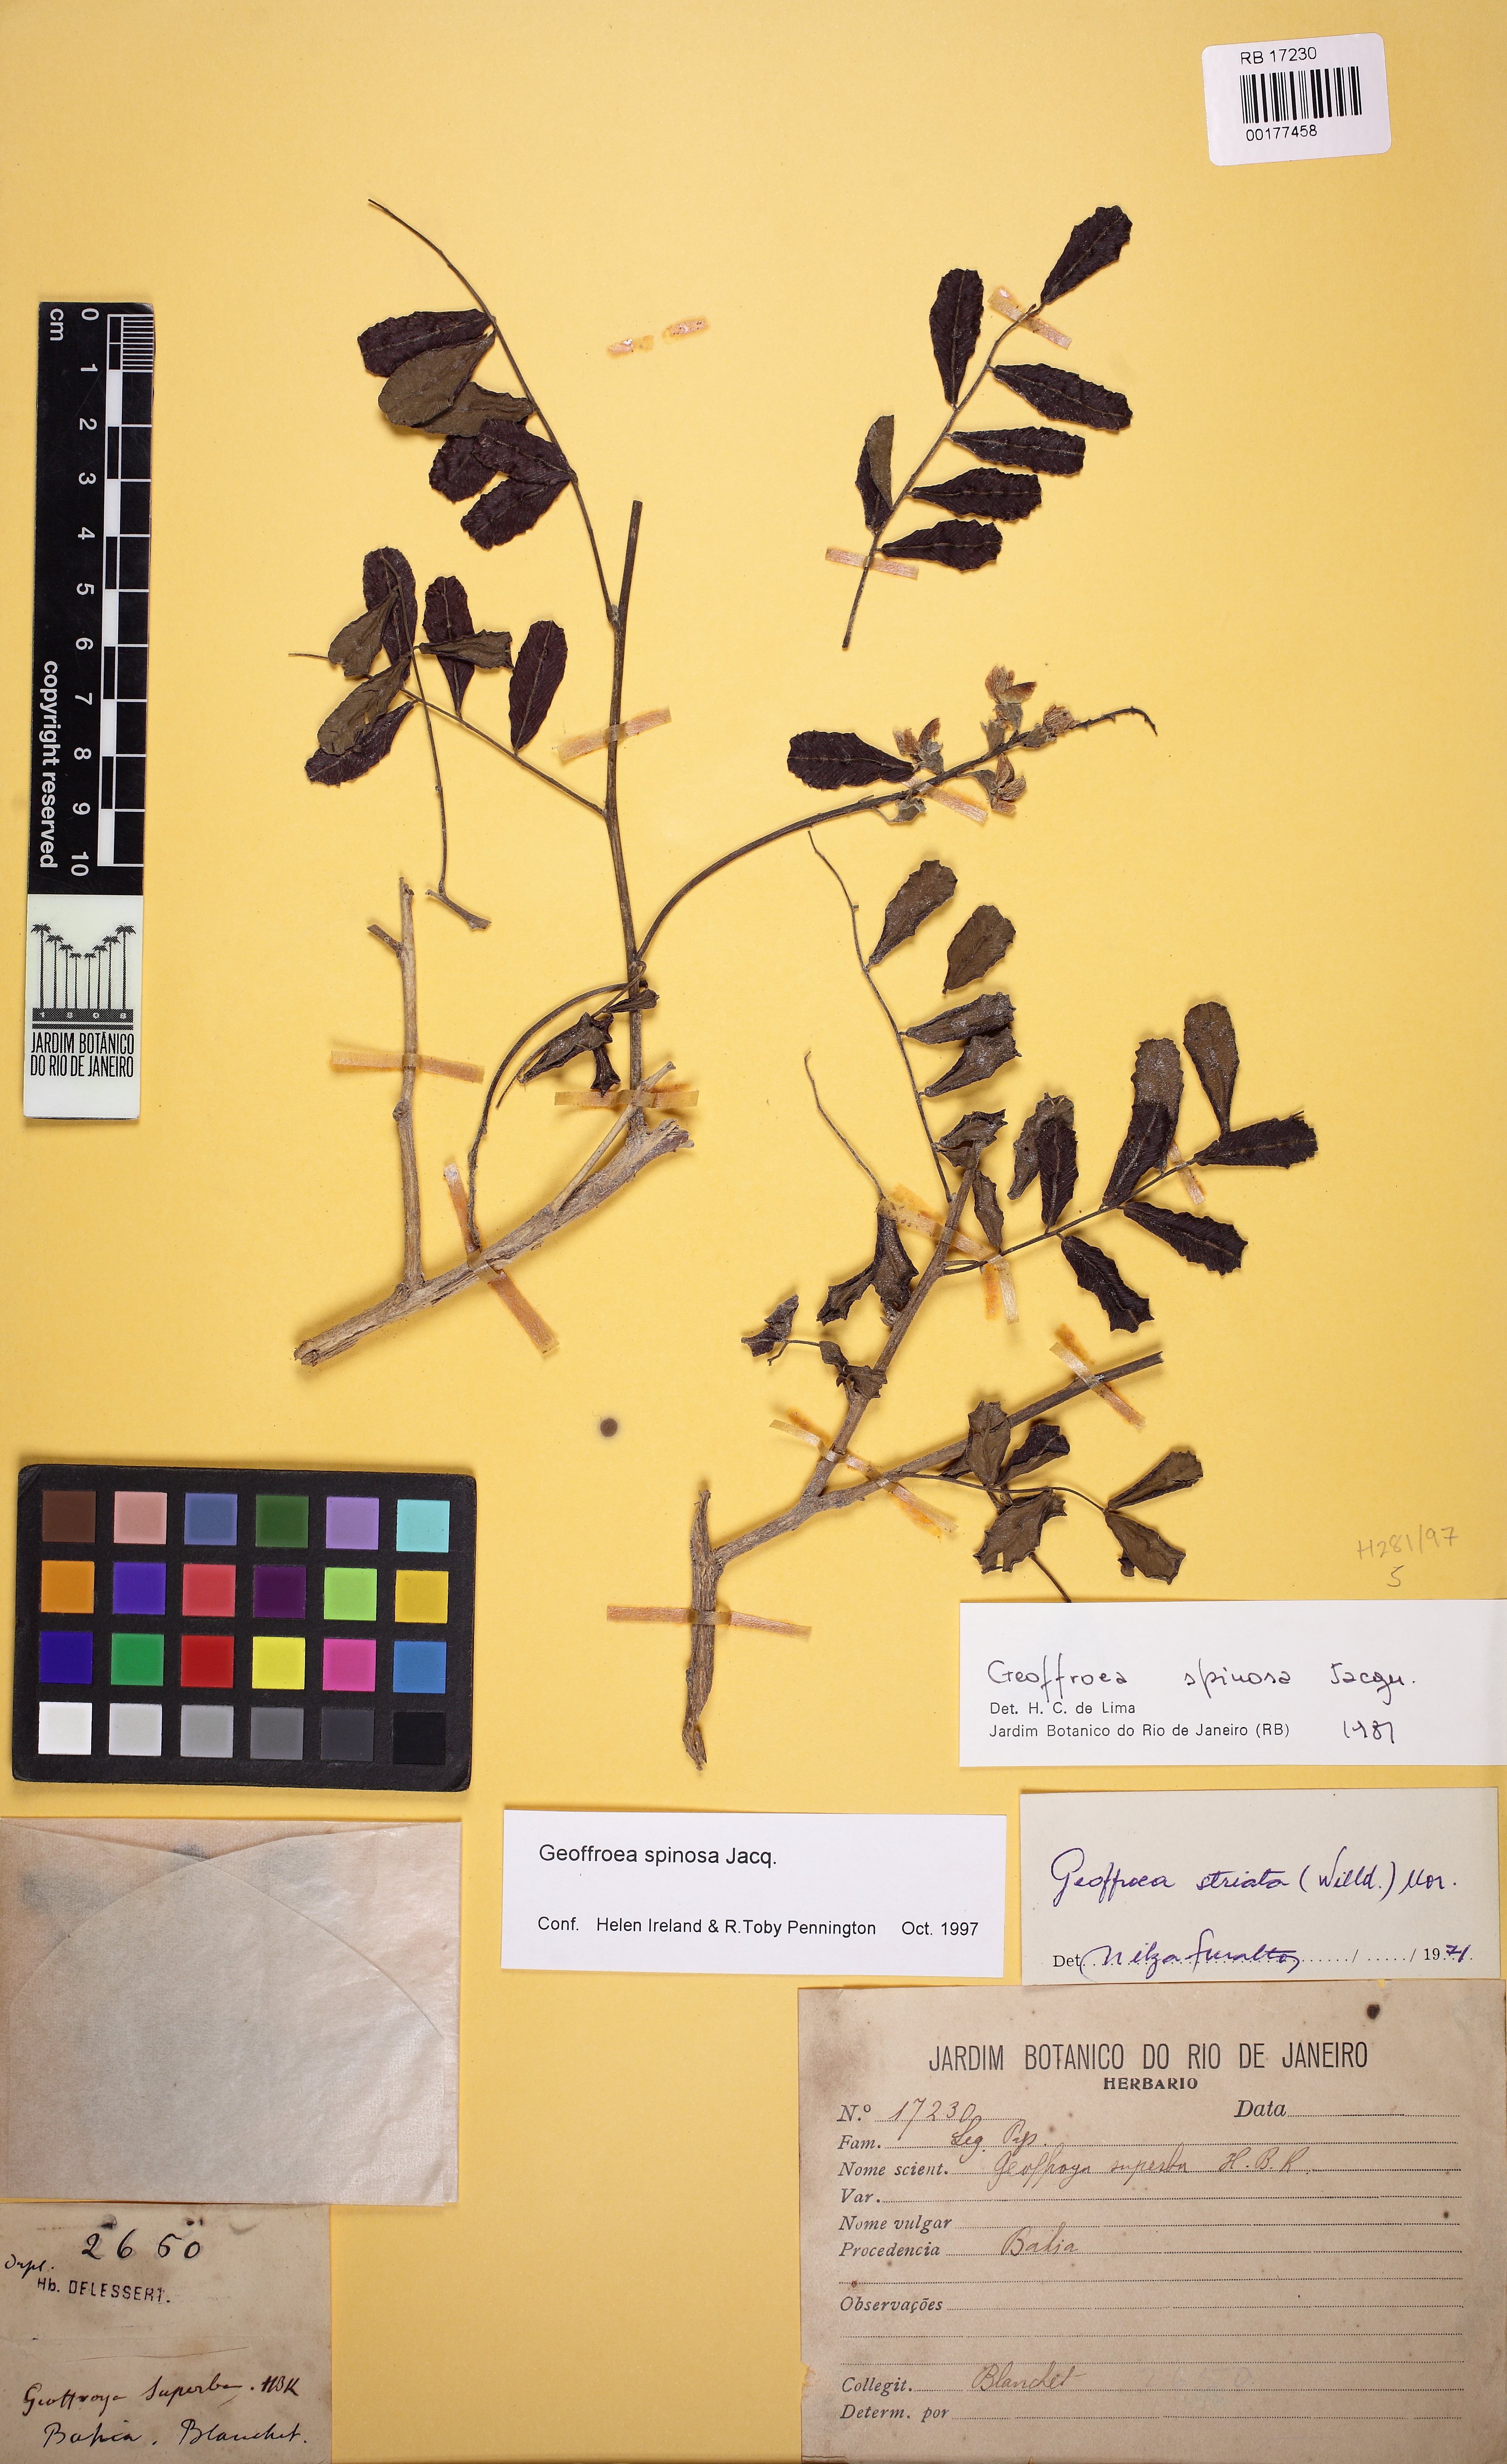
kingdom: Plantae
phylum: Tracheophyta
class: Magnoliopsida
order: Fabales
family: Fabaceae
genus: Geoffroea
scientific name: Geoffroea spinosa
